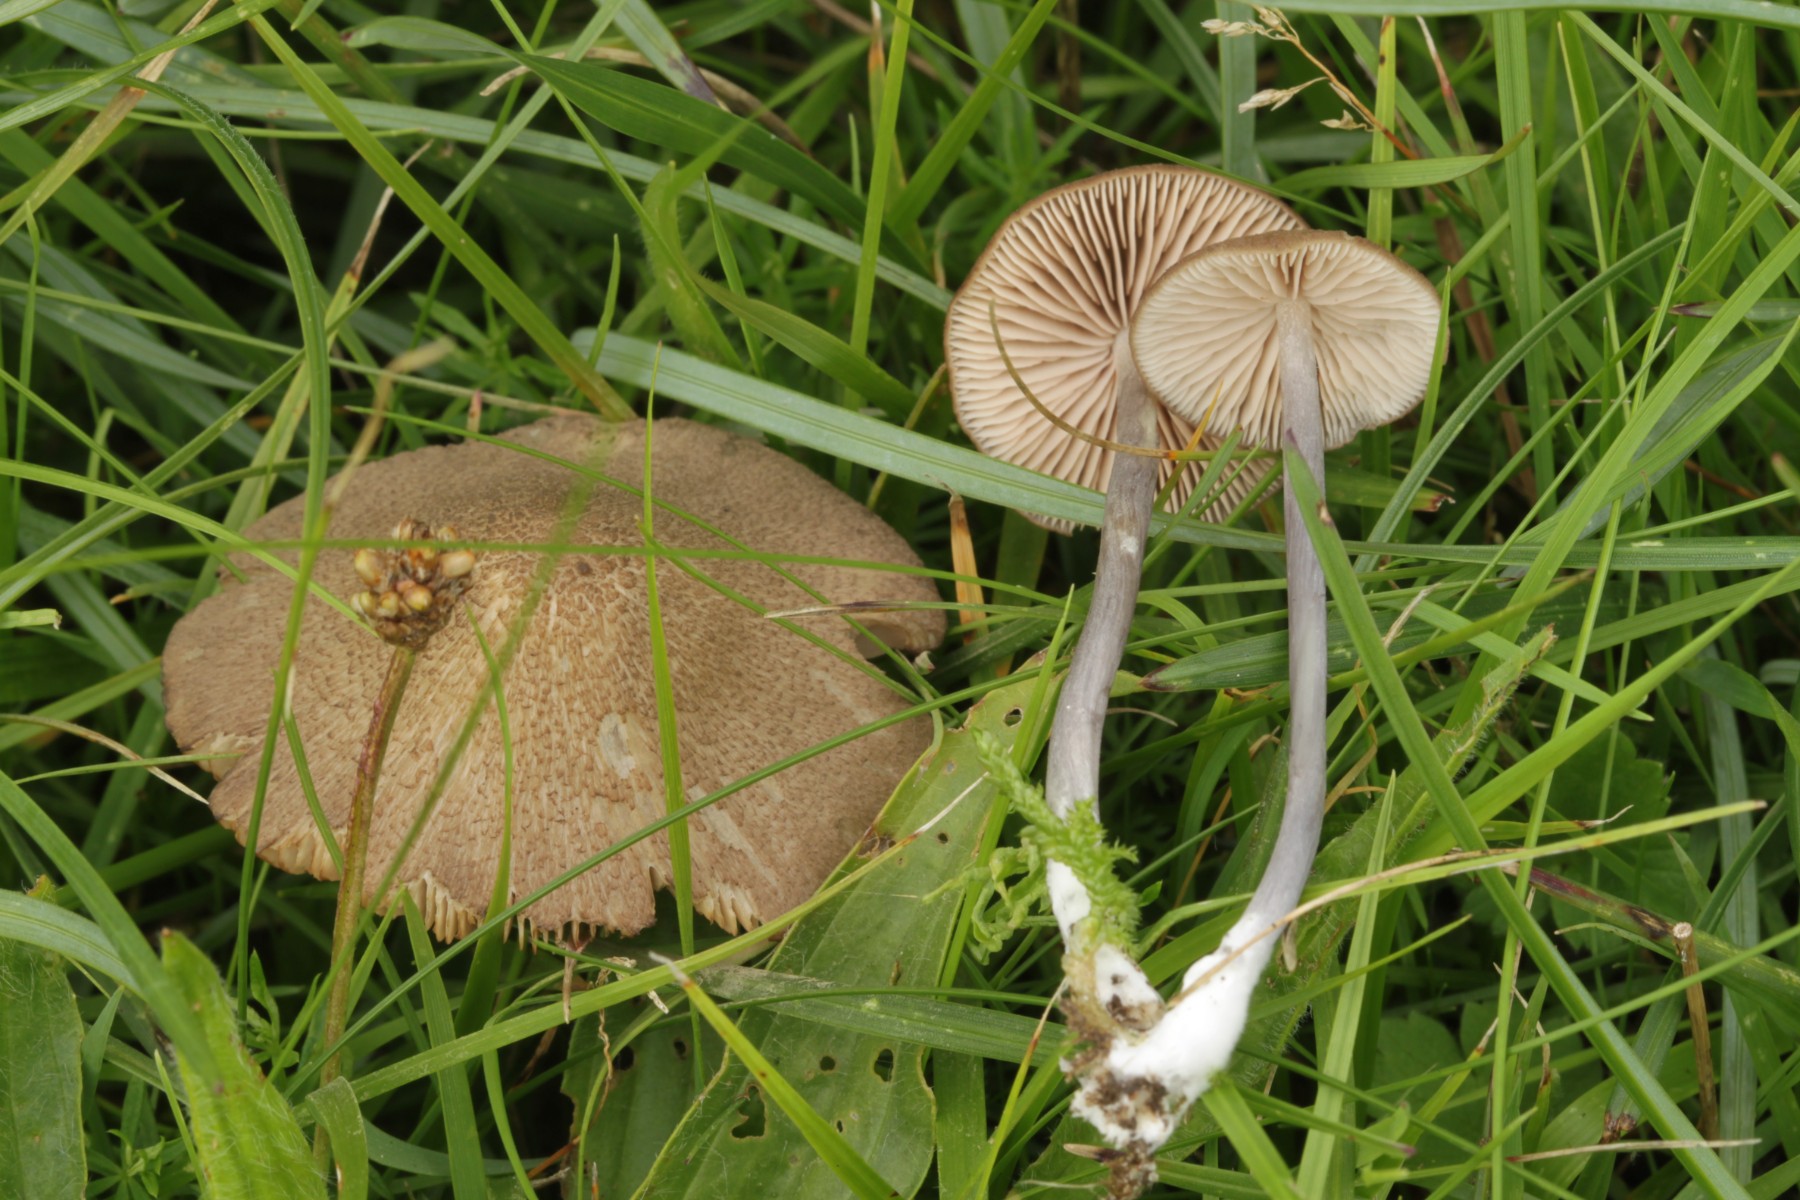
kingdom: Fungi
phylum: Basidiomycota
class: Agaricomycetes
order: Agaricales
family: Entolomataceae
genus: Entoloma
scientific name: Entoloma griseocyaneum
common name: gråblå rødblad
